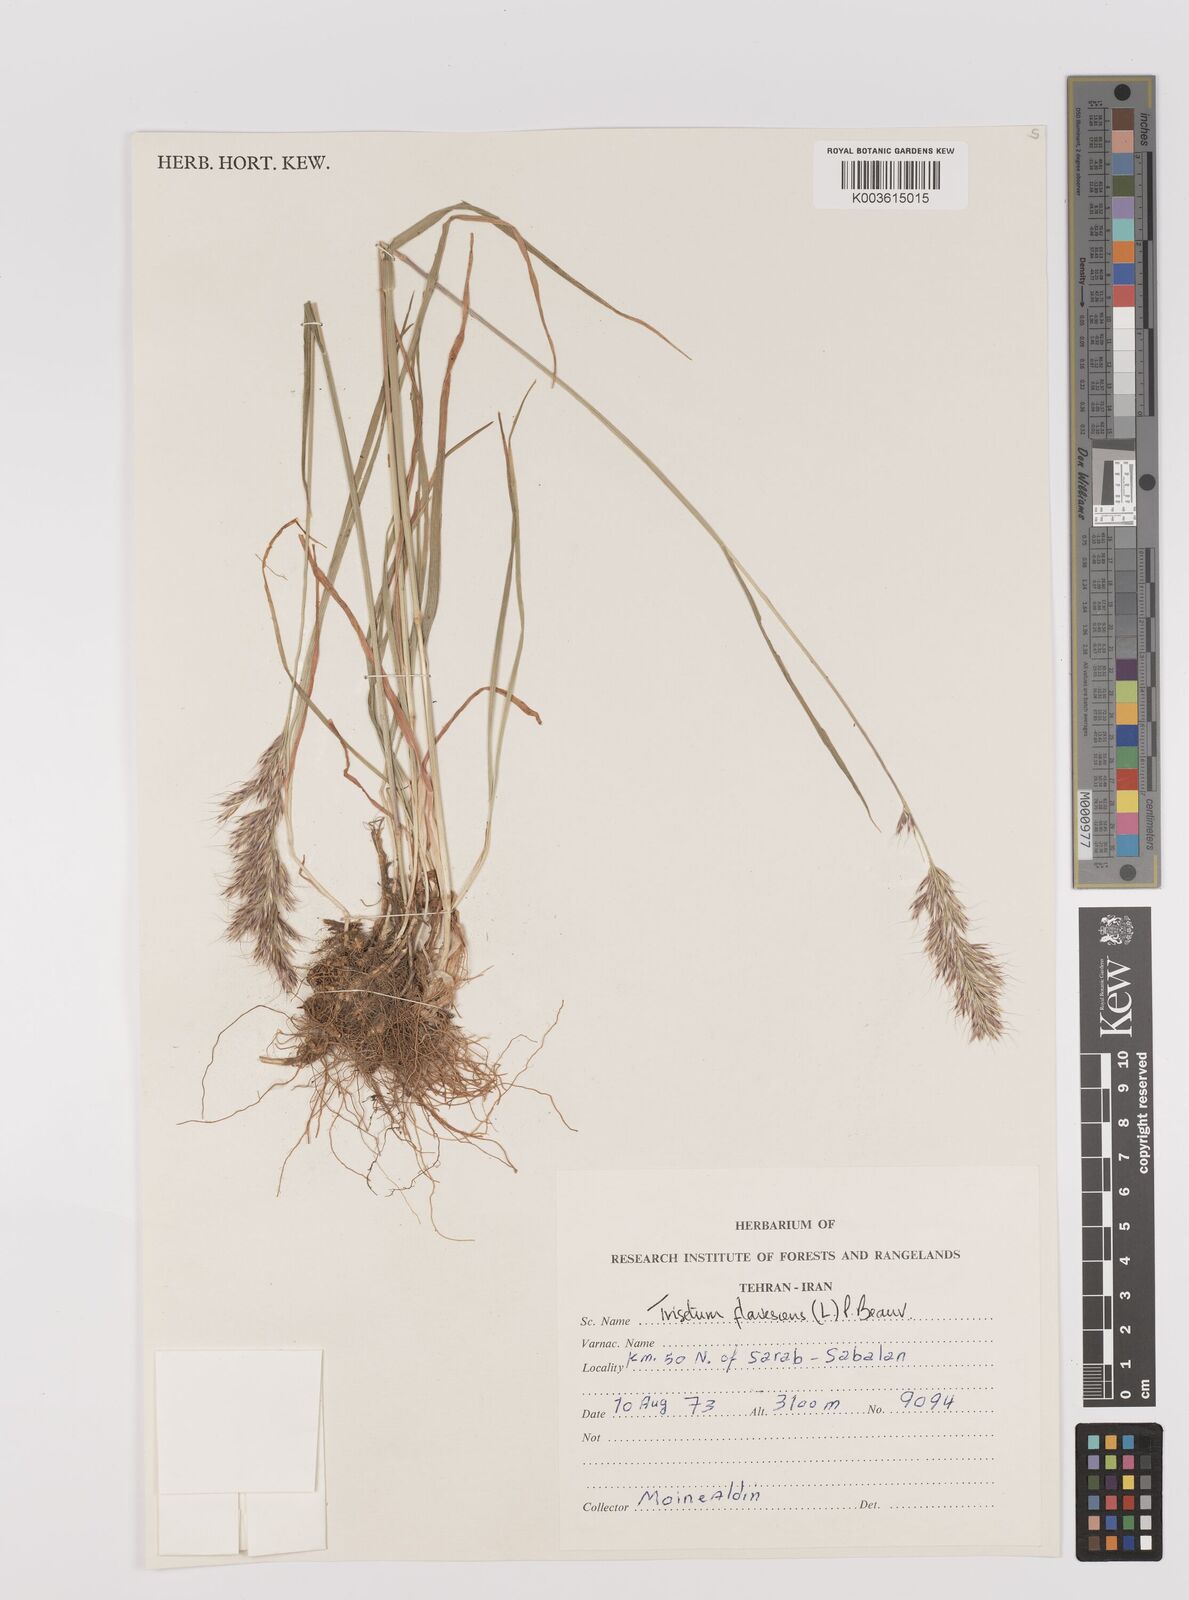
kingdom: Plantae
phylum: Tracheophyta
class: Liliopsida
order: Poales
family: Poaceae
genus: Trisetum
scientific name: Trisetum flavescens
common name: Yellow oat-grass
